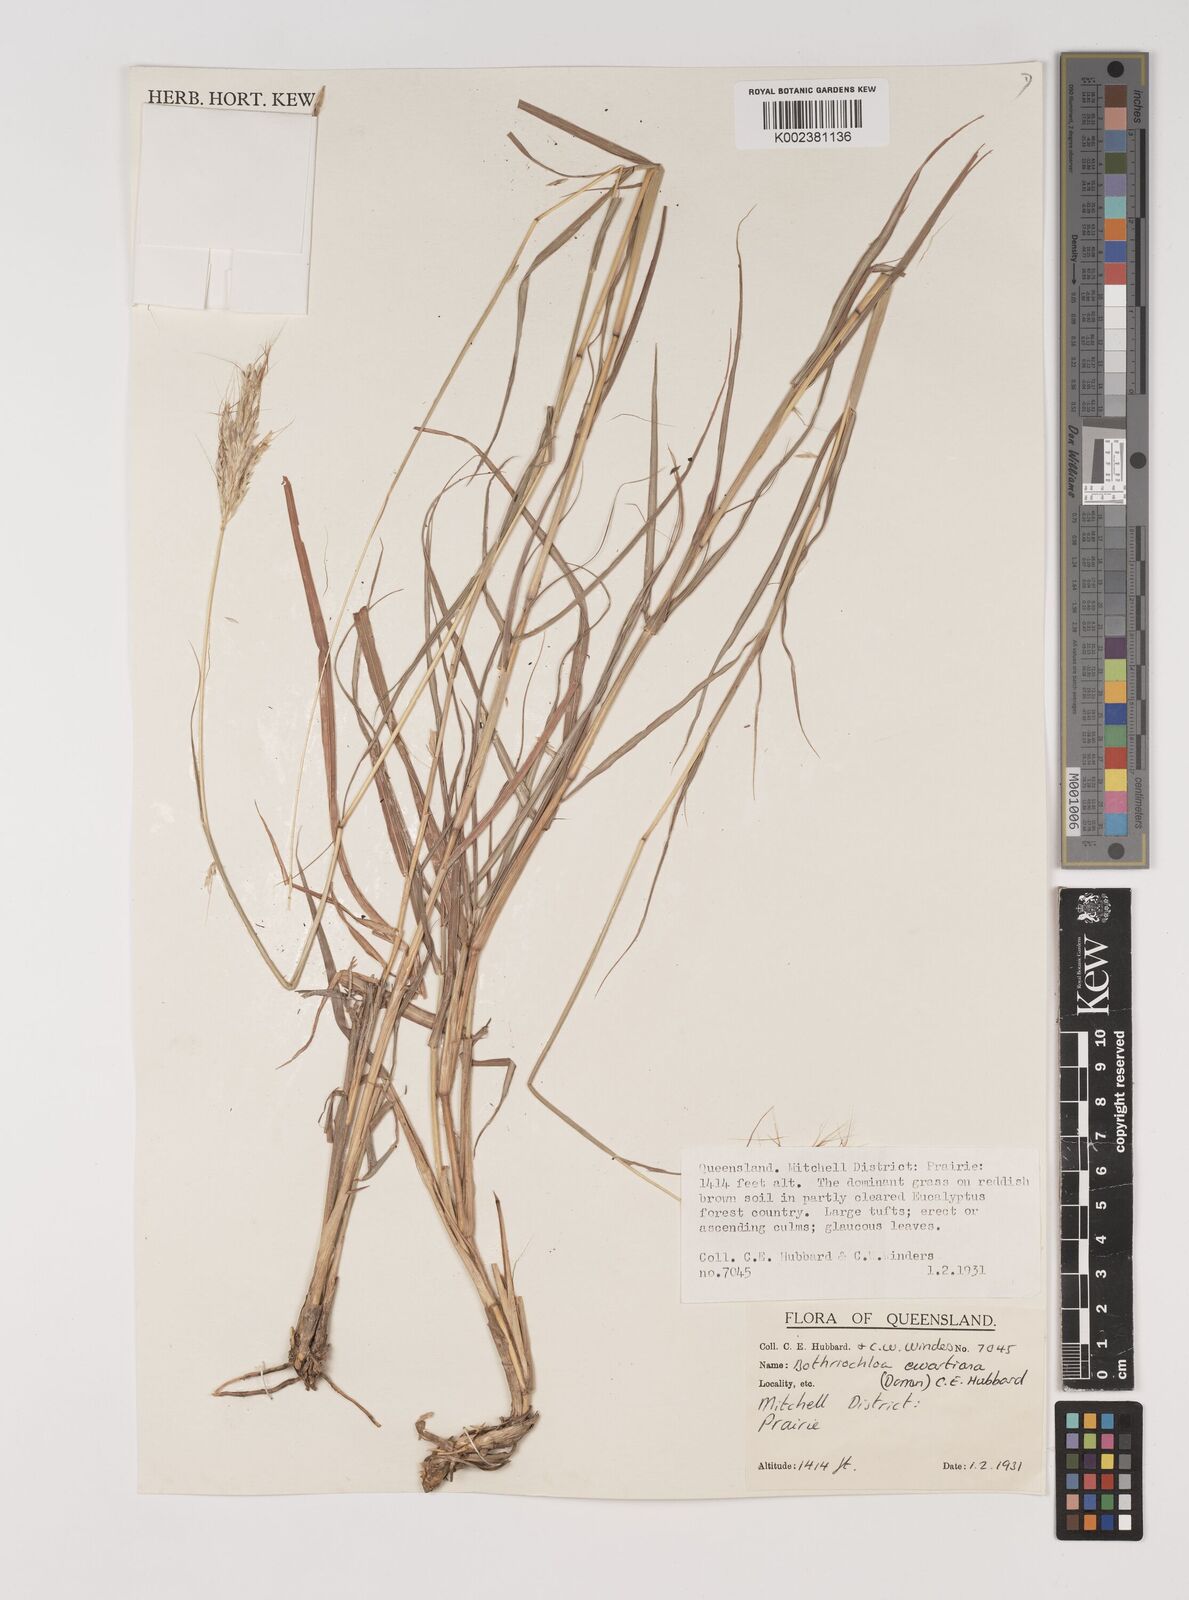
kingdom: Plantae
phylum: Tracheophyta
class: Liliopsida
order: Poales
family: Poaceae
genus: Bothriochloa
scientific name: Bothriochloa ewartiana
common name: Desert-bluegrass
